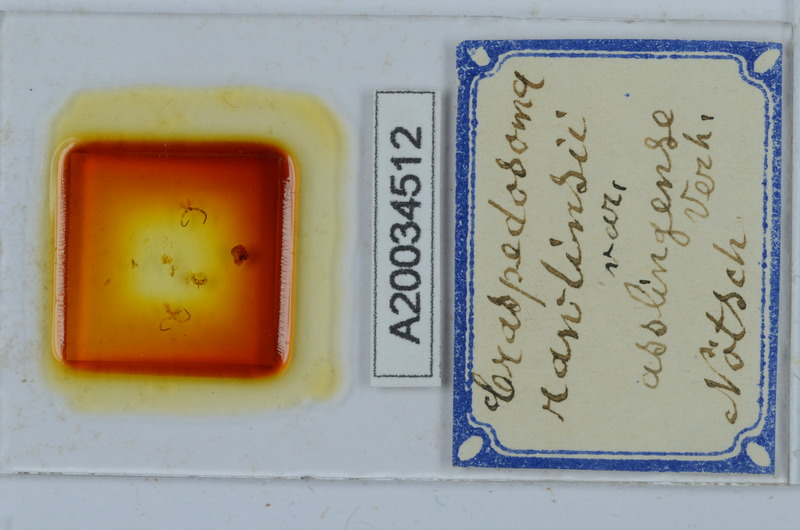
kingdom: Animalia
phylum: Arthropoda
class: Diplopoda
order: Chordeumatida
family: Craspedosomatidae
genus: Craspedosoma
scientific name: Craspedosoma slavum
